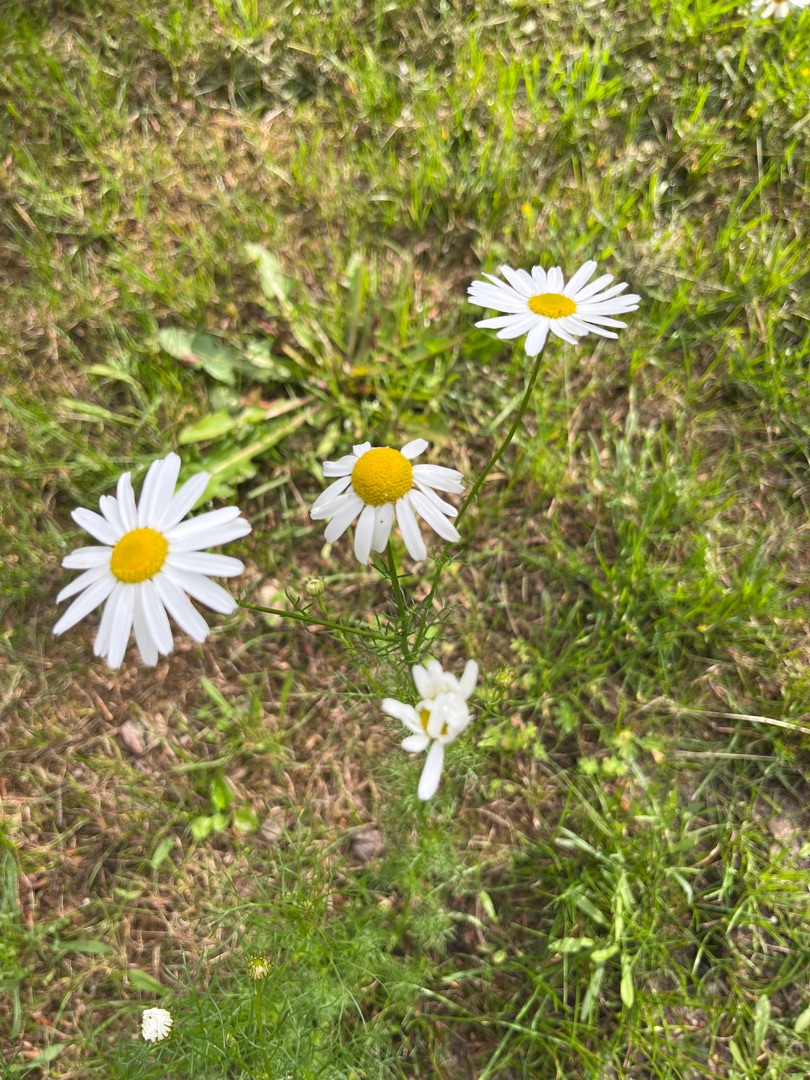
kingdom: Plantae
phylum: Tracheophyta
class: Magnoliopsida
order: Asterales
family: Asteraceae
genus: Tripleurospermum
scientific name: Tripleurospermum inodorum
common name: Lugtløs kamille
